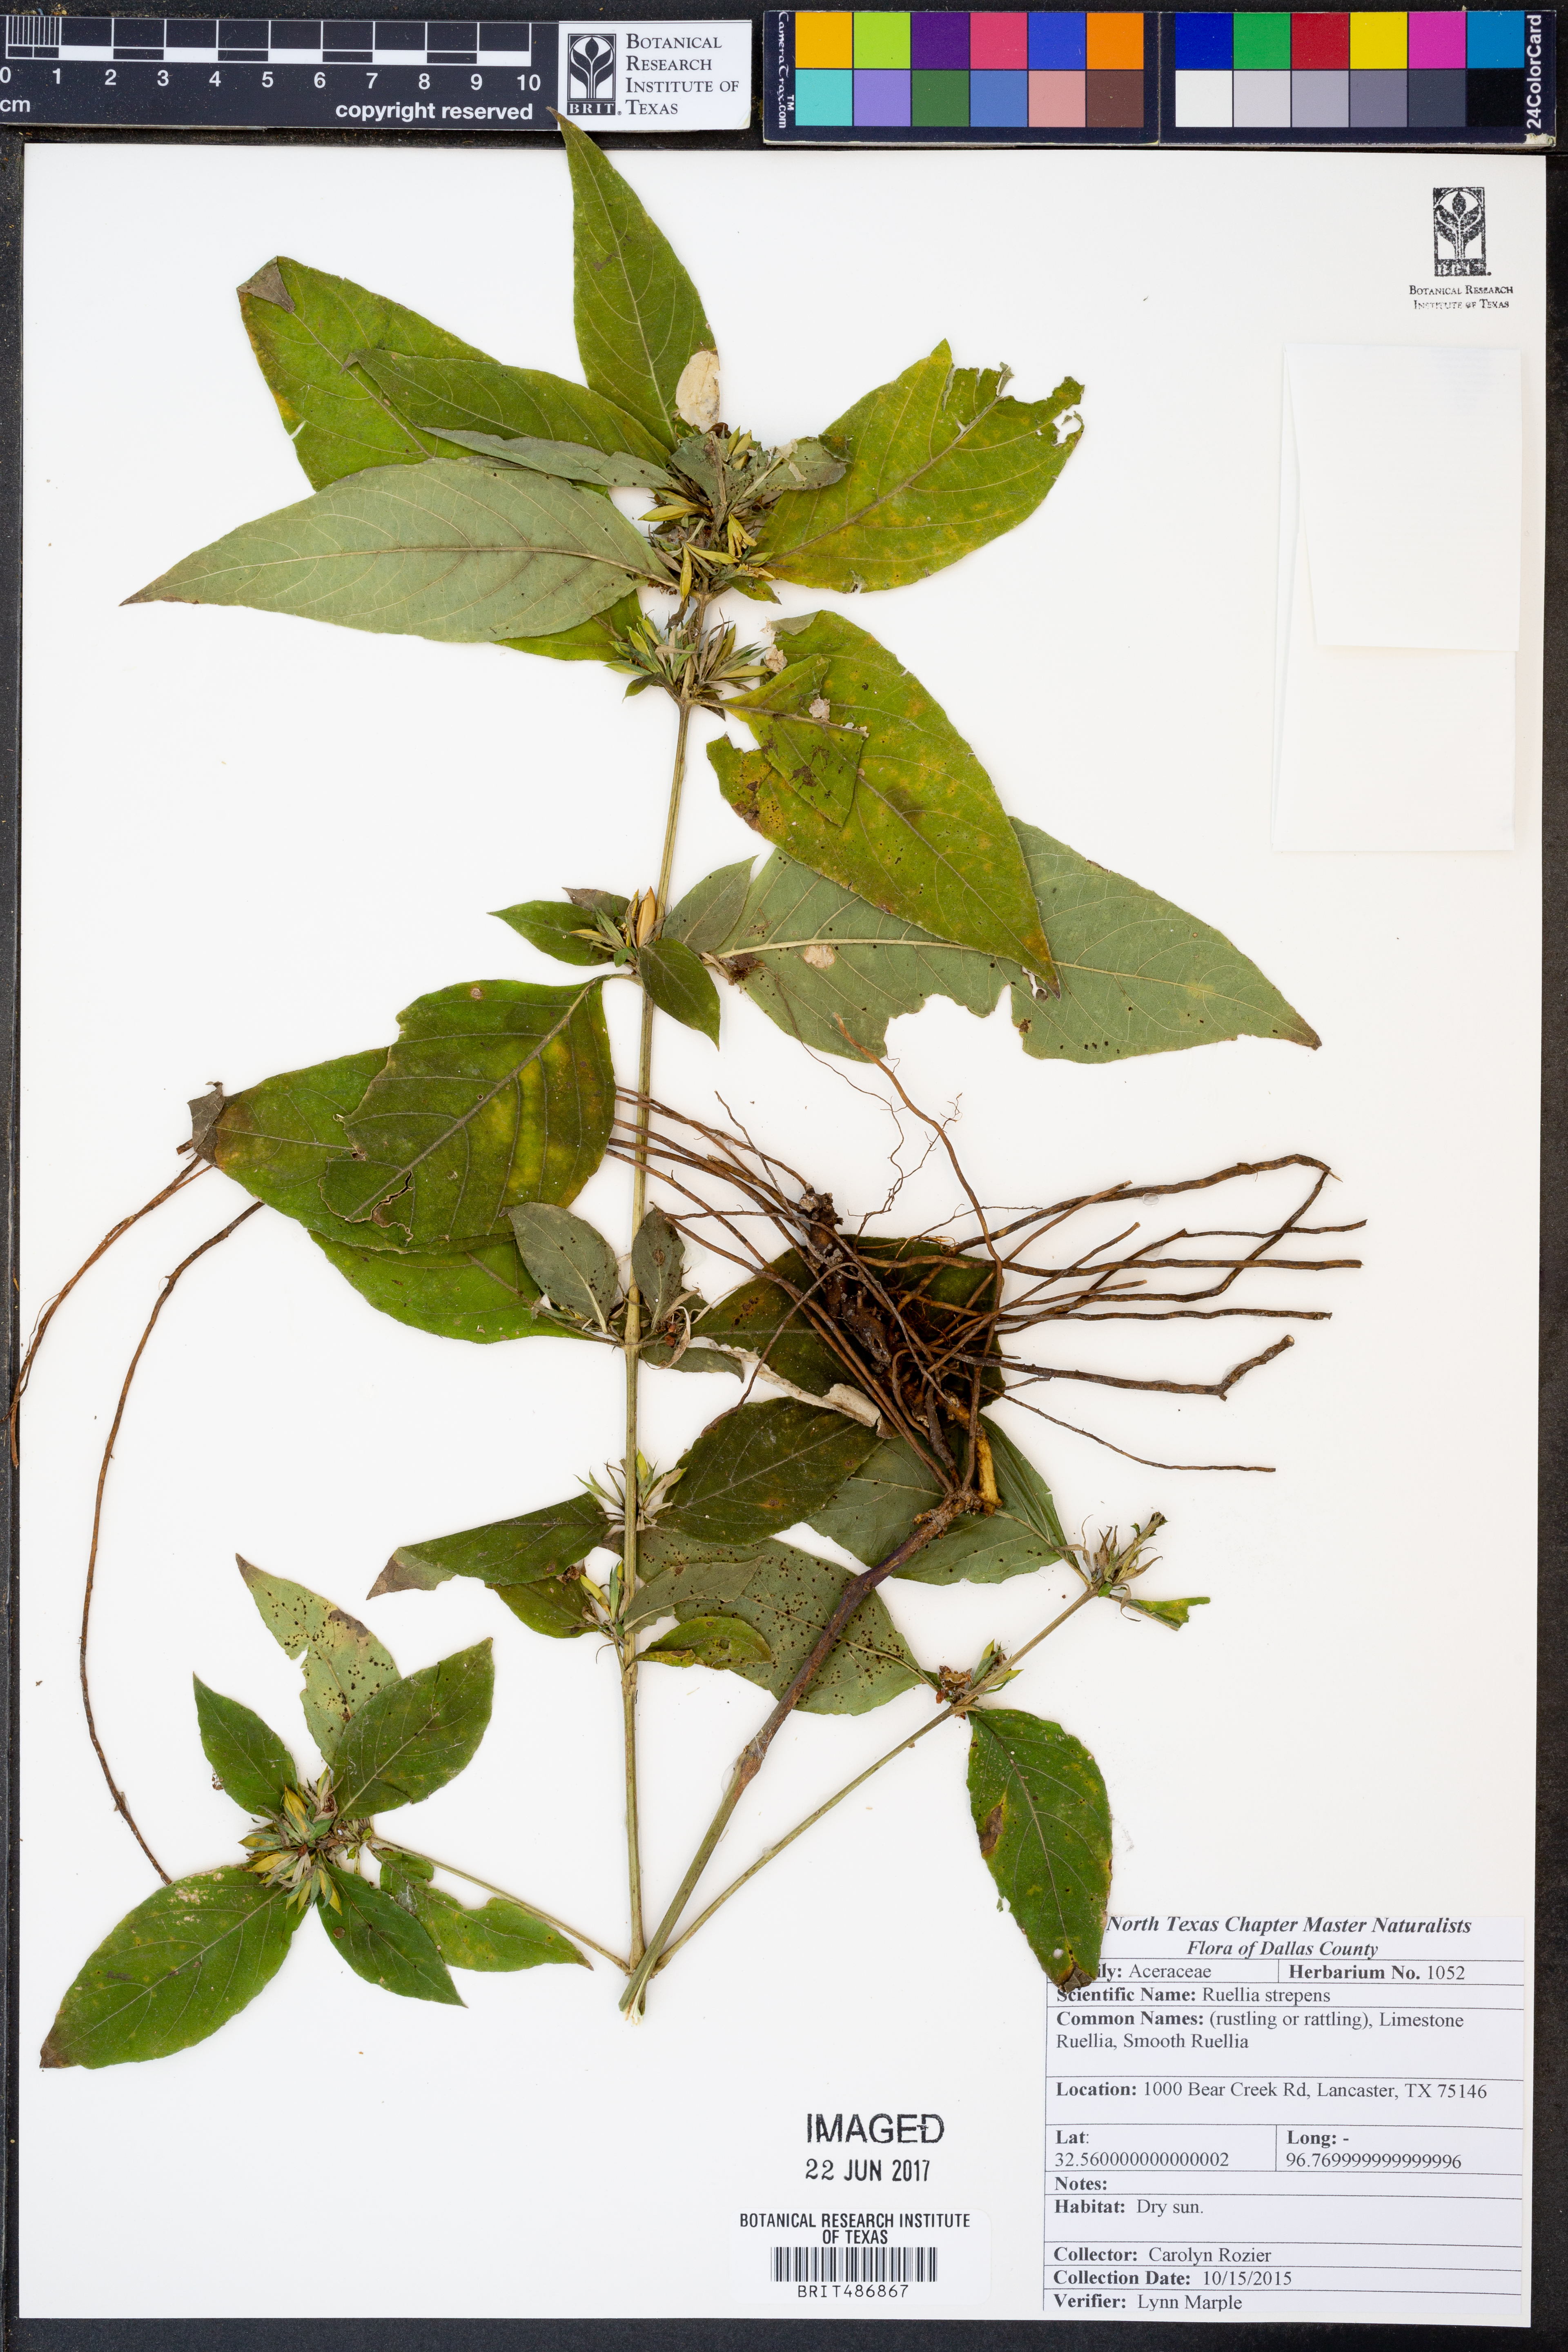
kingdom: Plantae
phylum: Tracheophyta
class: Magnoliopsida
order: Lamiales
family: Acanthaceae
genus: Ruellia
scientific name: Ruellia strepens
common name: Limestone wild petunia
